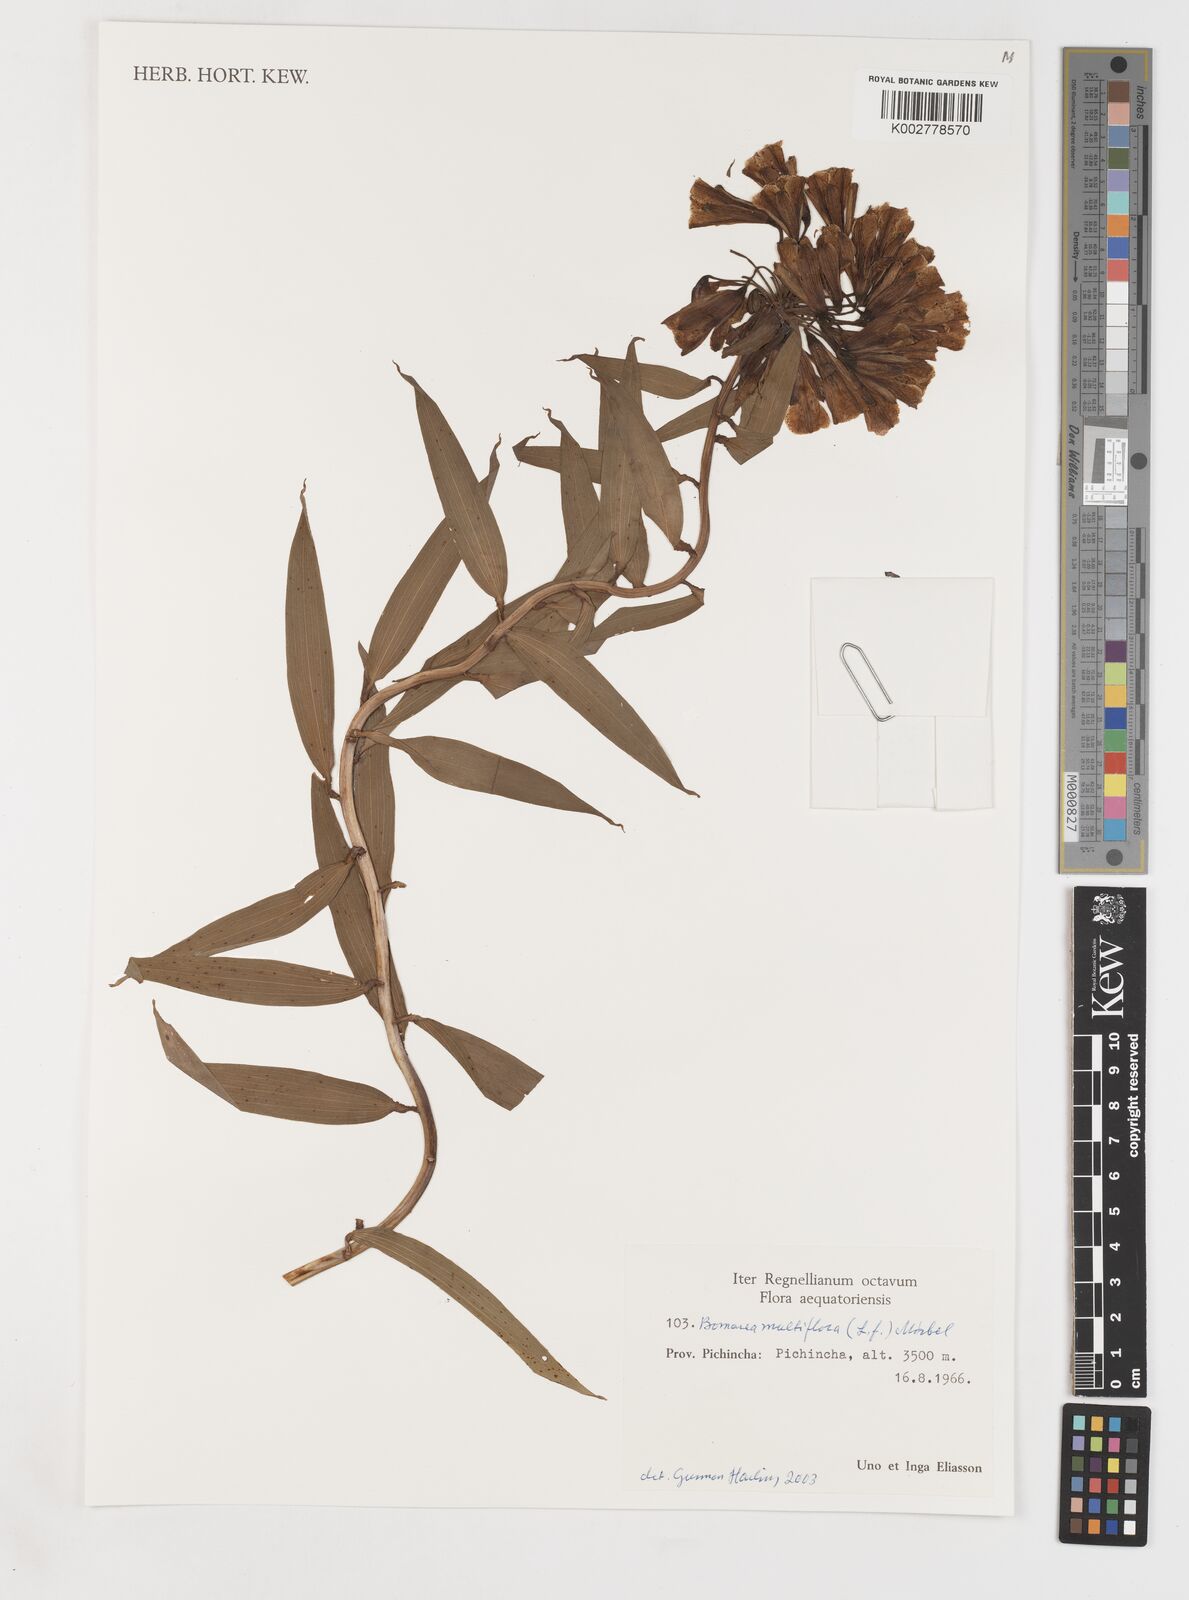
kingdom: Plantae
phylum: Tracheophyta
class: Liliopsida
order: Liliales
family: Alstroemeriaceae
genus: Bomarea
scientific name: Bomarea multiflora
